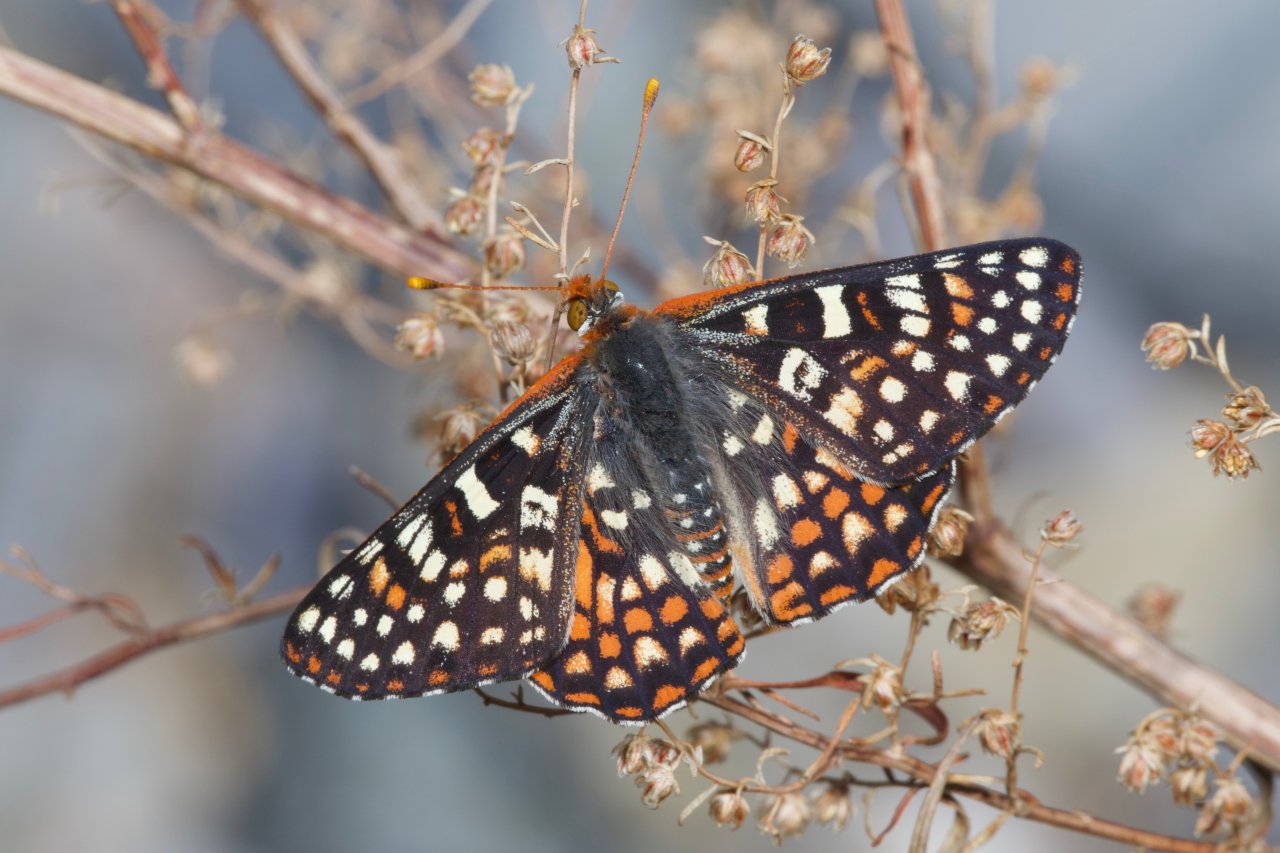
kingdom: Animalia
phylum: Arthropoda
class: Insecta
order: Lepidoptera
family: Nymphalidae
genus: Occidryas
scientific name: Occidryas chalcedona
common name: Chalcedon Checkerspot
